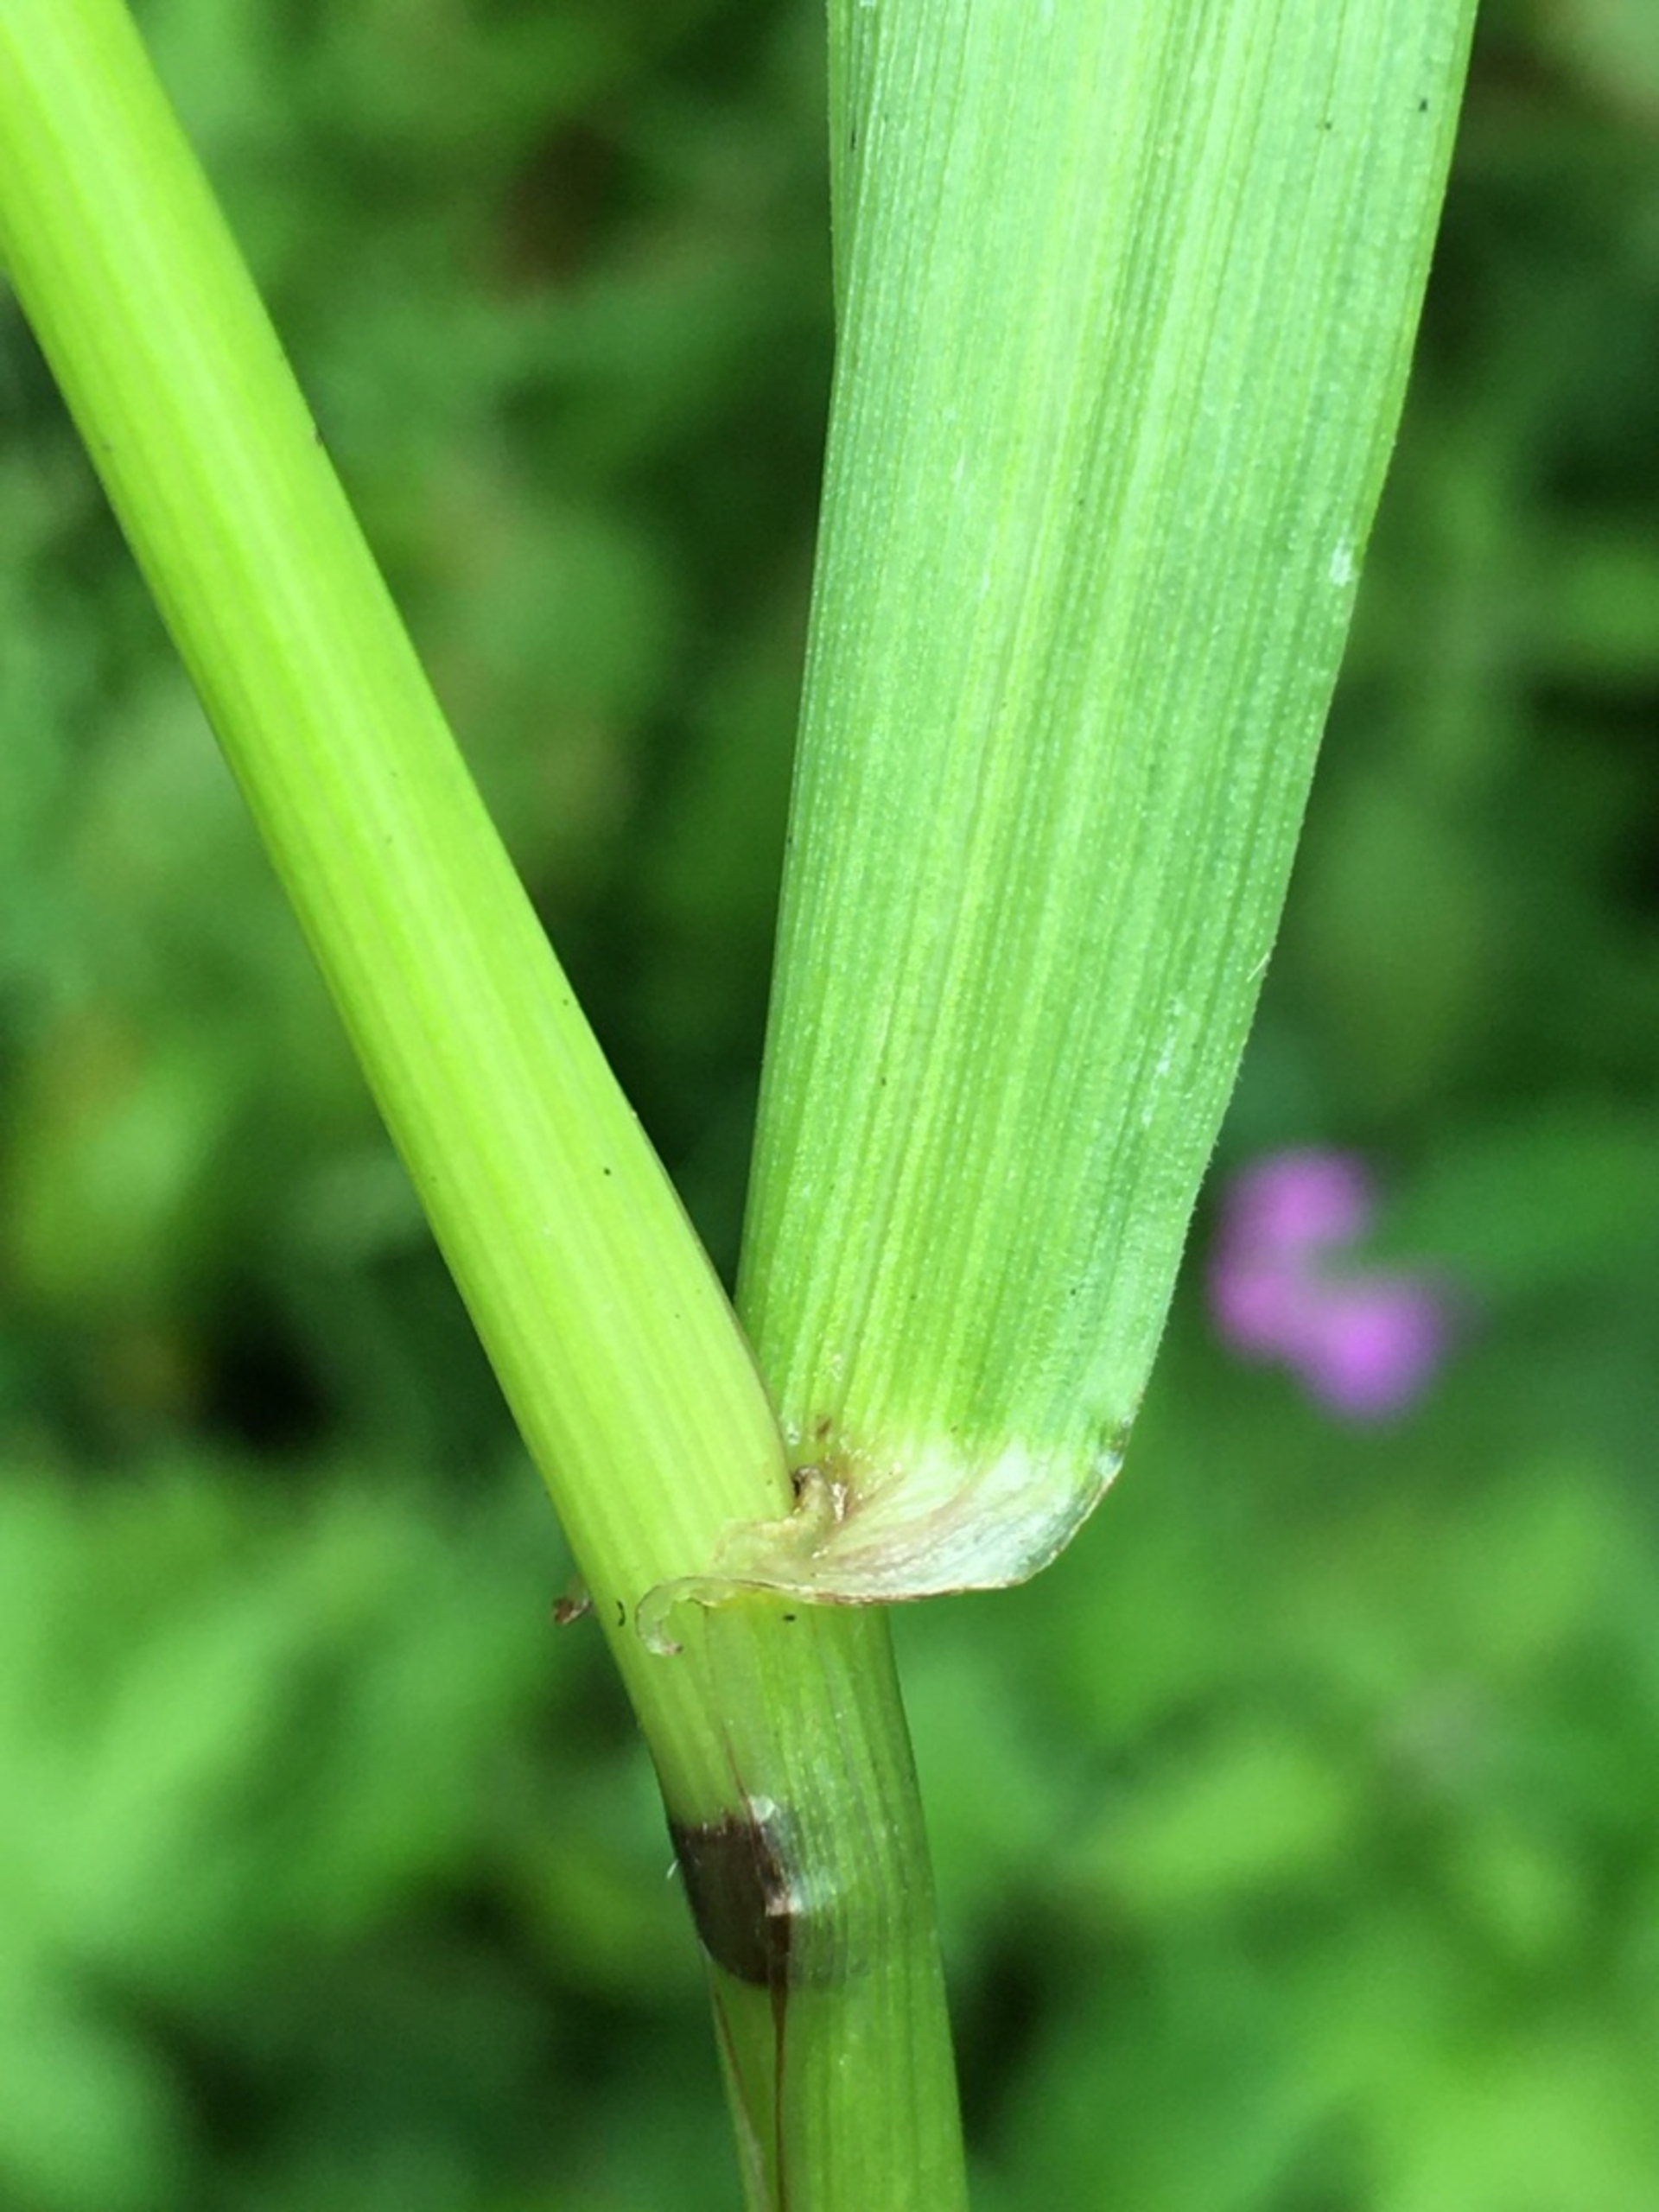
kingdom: Plantae
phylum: Tracheophyta
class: Liliopsida
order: Poales
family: Poaceae
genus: Lolium
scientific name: Lolium giganteum
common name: Kæmpe-svingel
